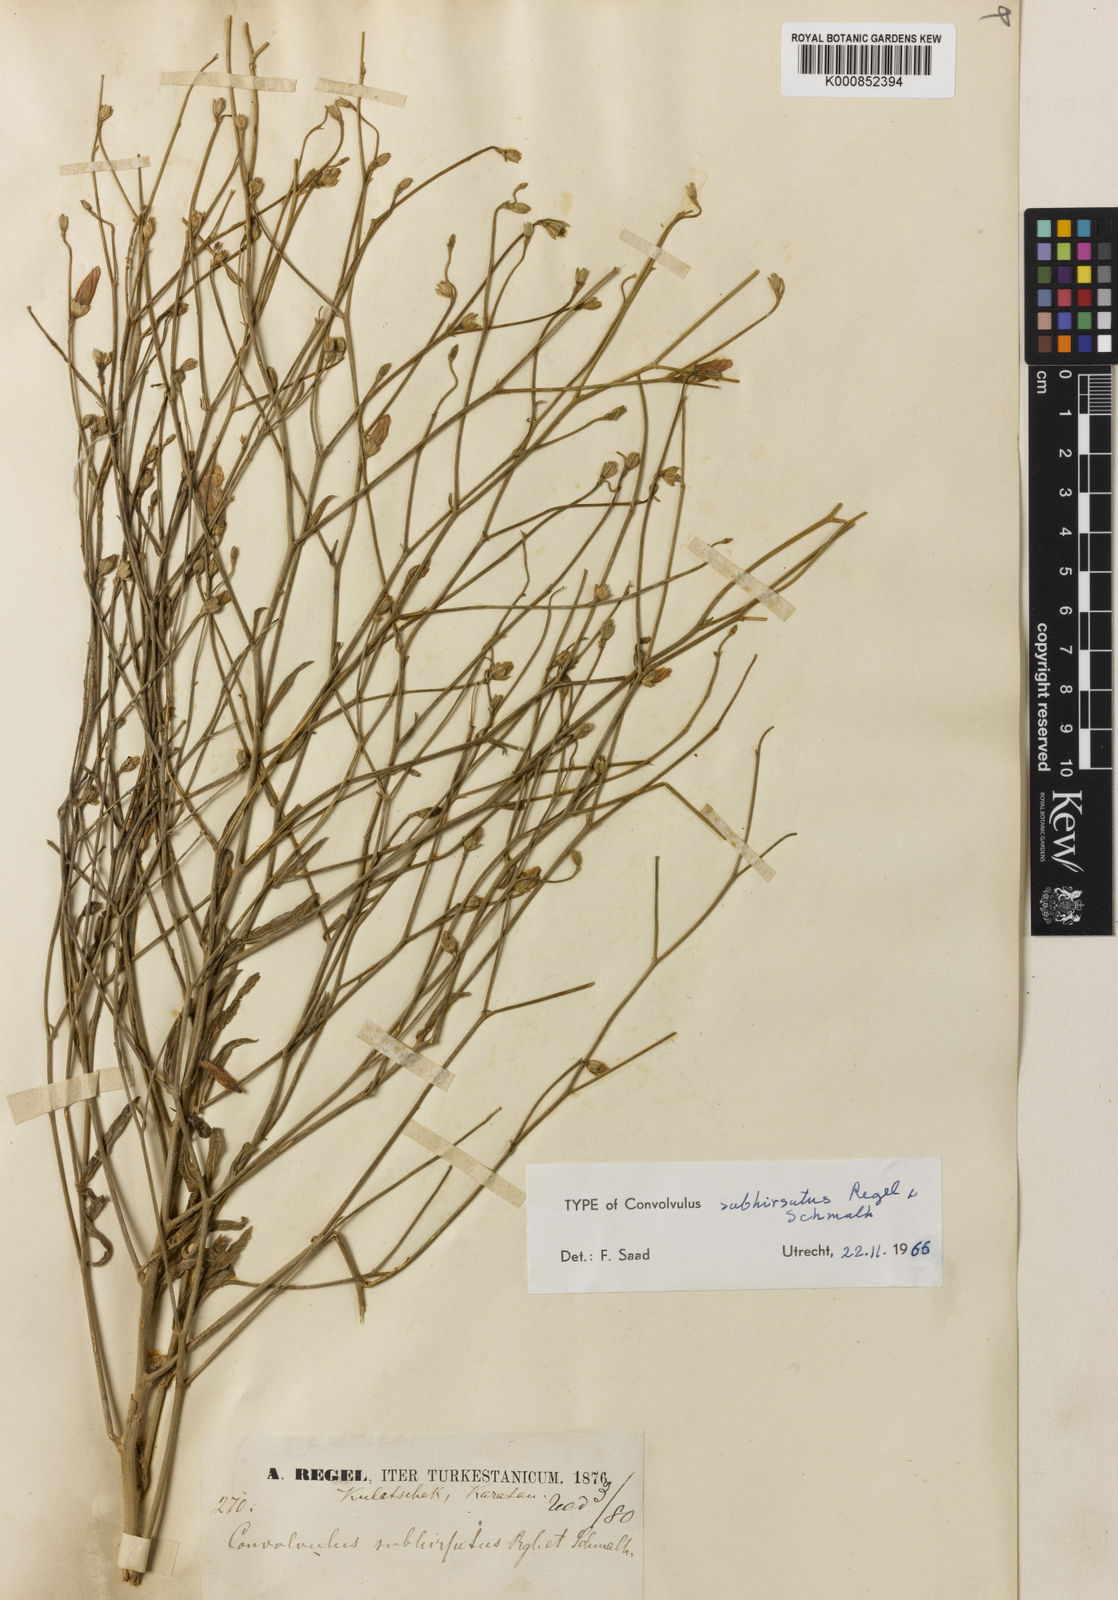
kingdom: Plantae
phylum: Tracheophyta
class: Magnoliopsida
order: Solanales
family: Convolvulaceae
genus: Convolvulus
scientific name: Convolvulus dorycnium
